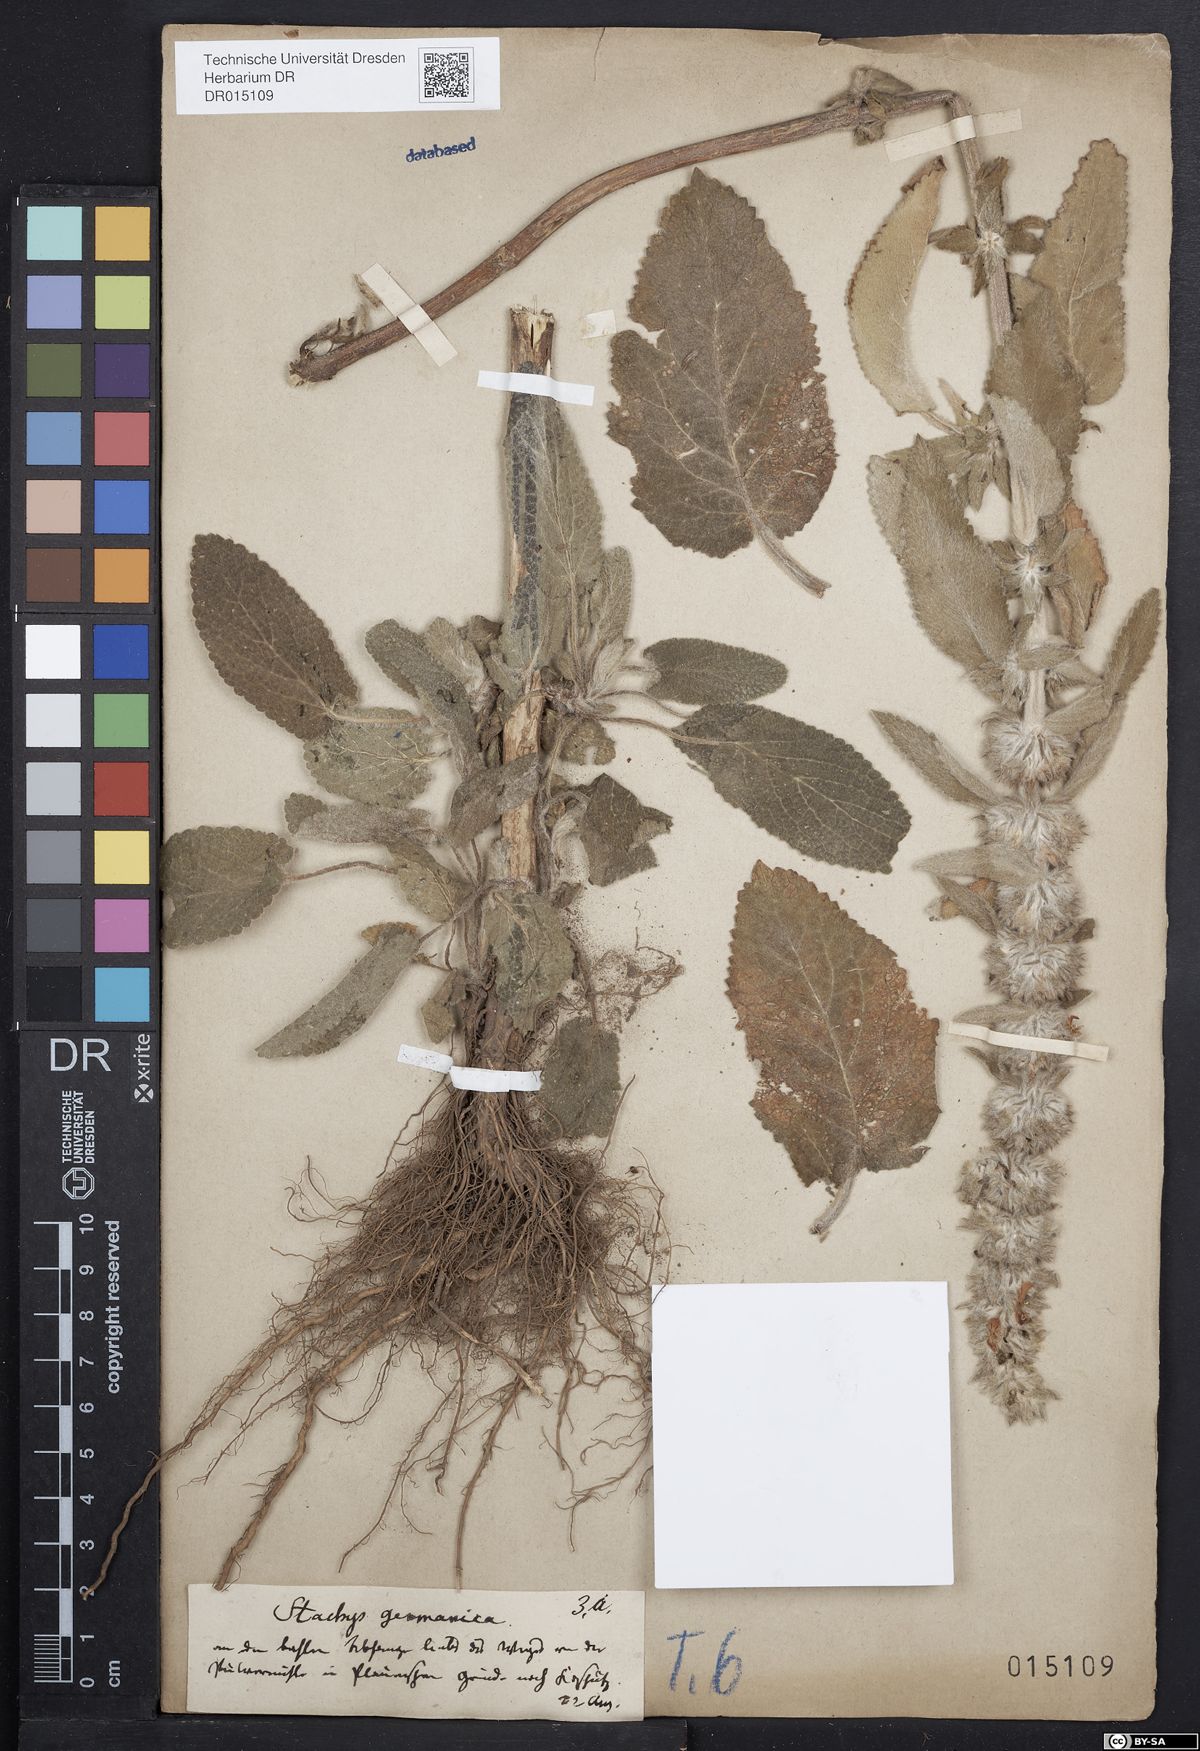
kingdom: Plantae
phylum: Tracheophyta
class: Magnoliopsida
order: Lamiales
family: Lamiaceae
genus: Stachys
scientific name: Stachys germanica
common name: Downy woundwort
